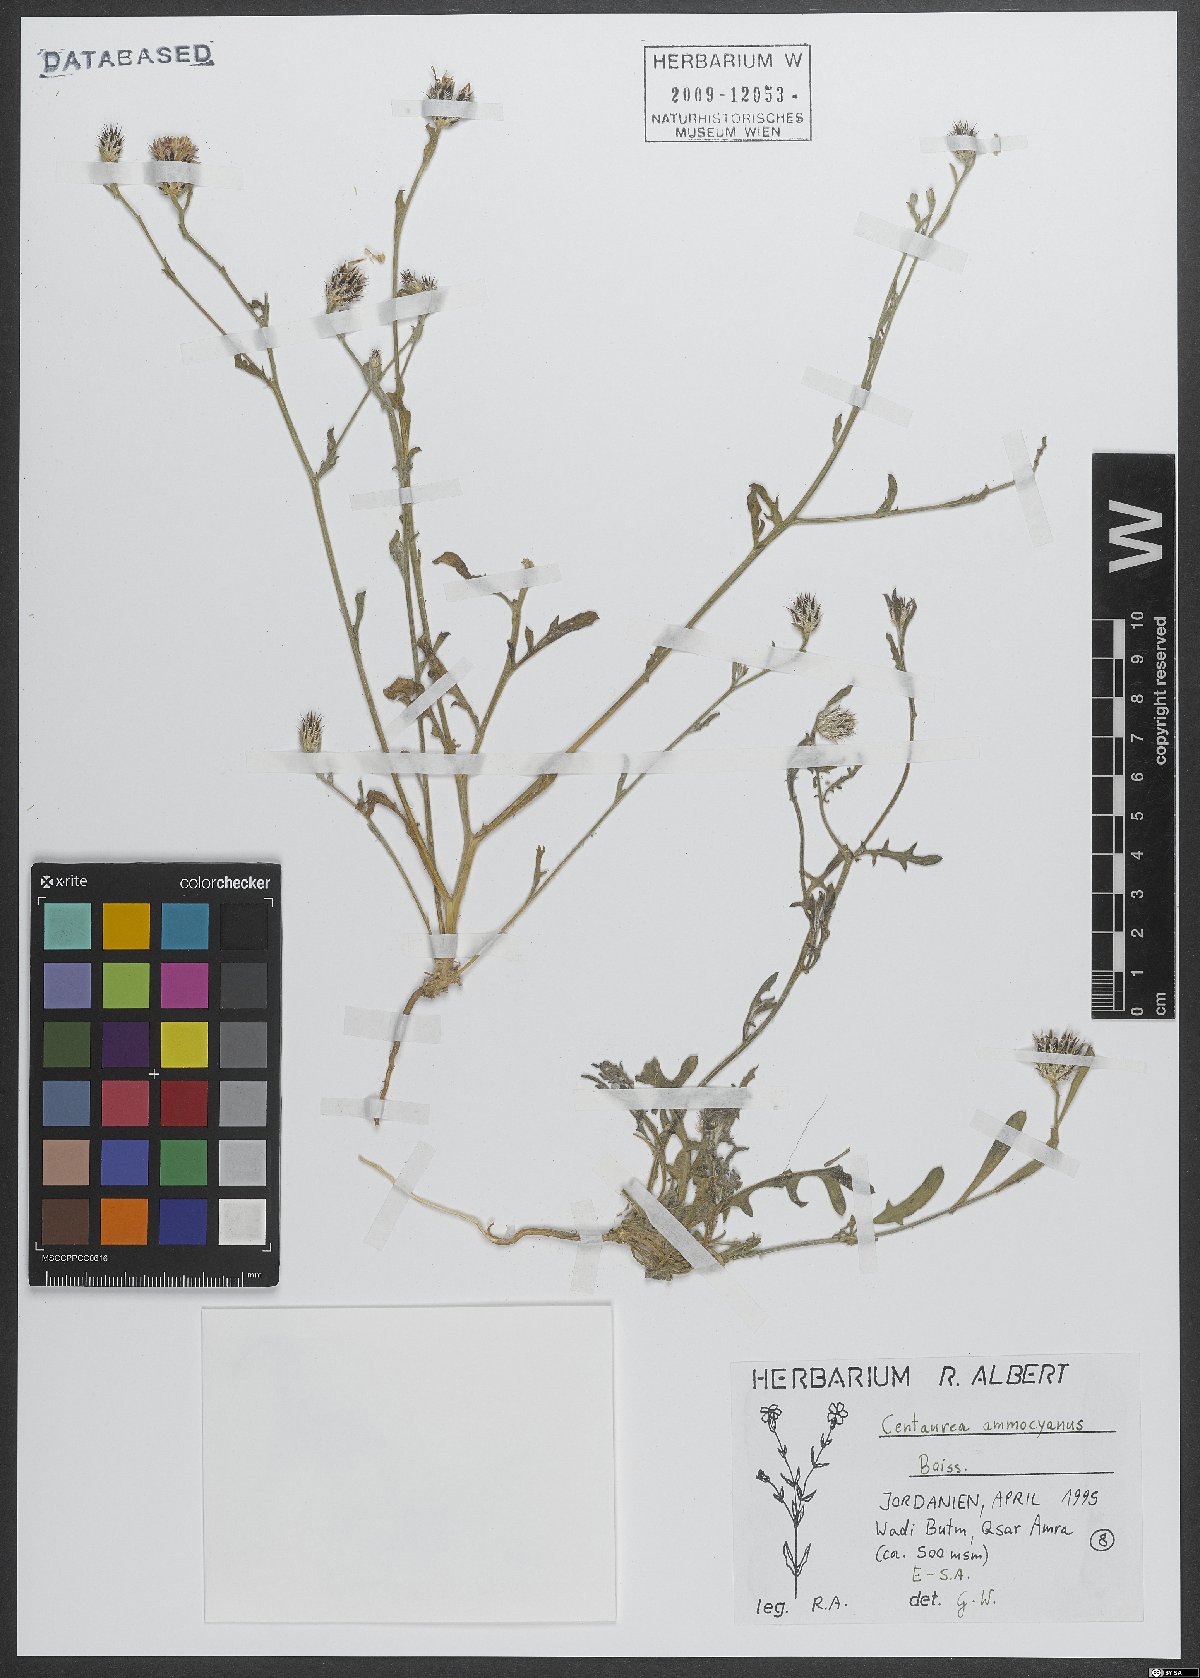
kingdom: Plantae
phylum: Tracheophyta
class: Magnoliopsida
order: Asterales
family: Asteraceae
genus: Centaurea
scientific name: Centaurea ammocyanus
